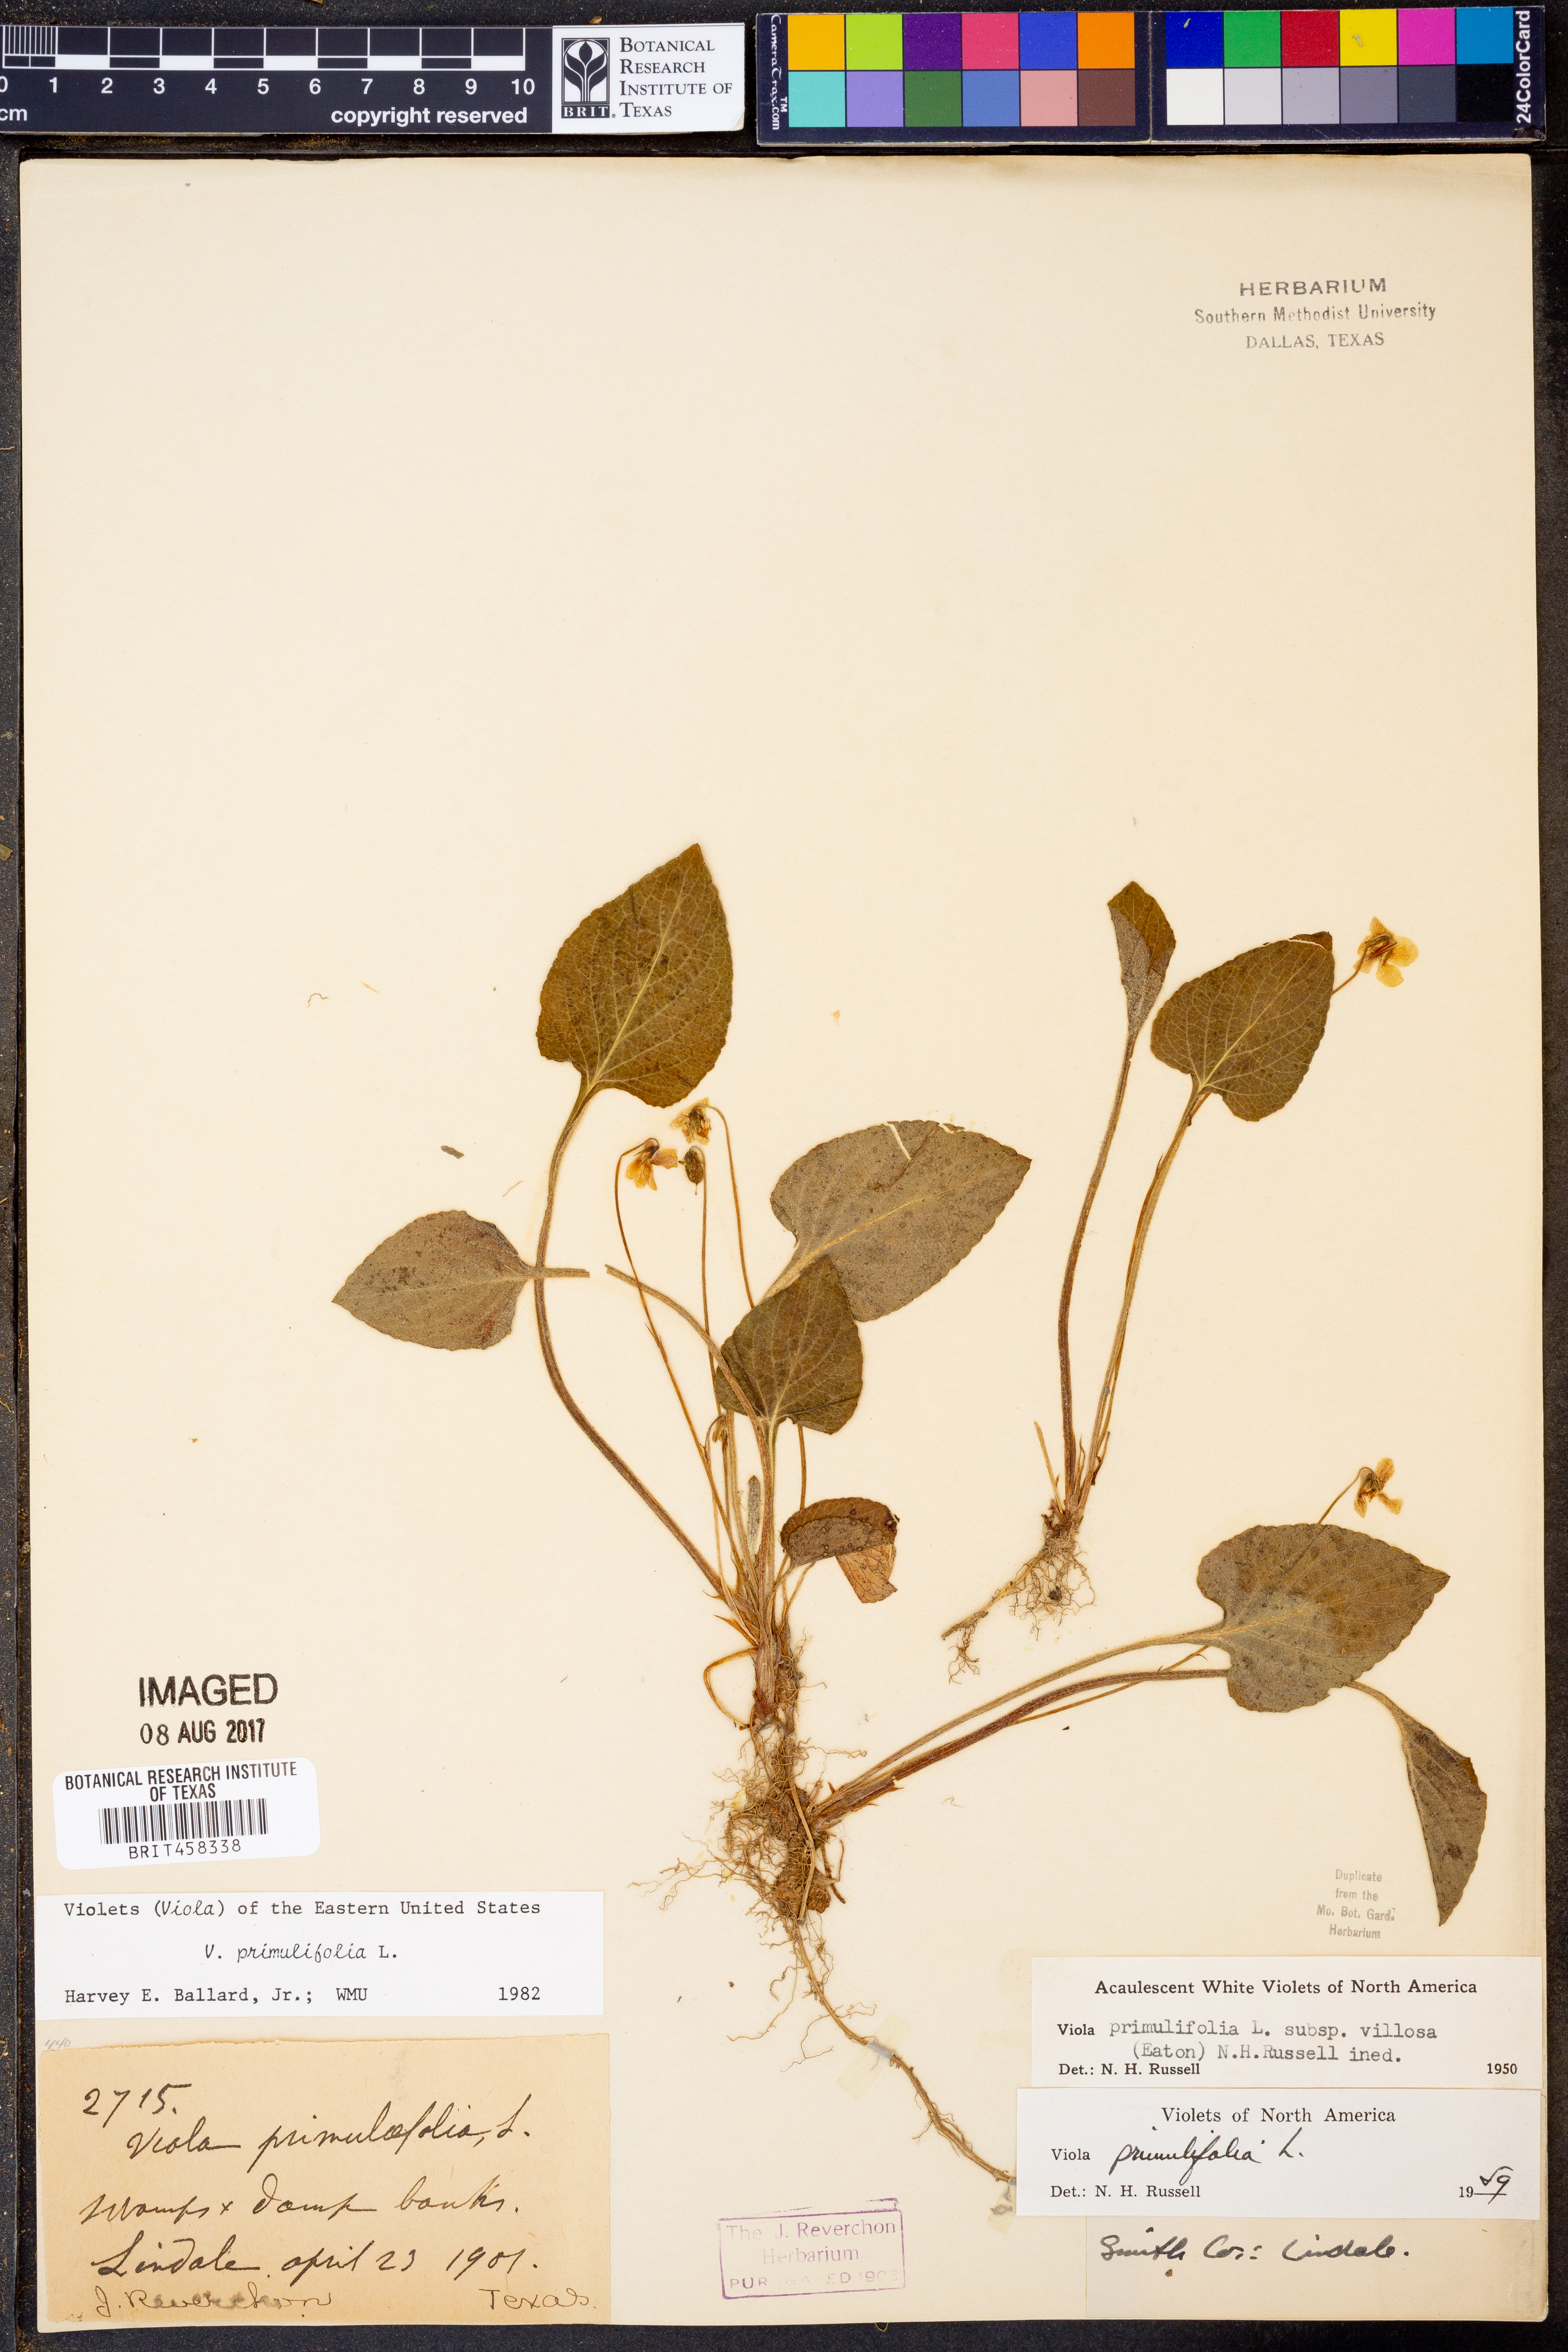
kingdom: Plantae
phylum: Tracheophyta
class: Magnoliopsida
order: Malpighiales
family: Violaceae
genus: Viola
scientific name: Viola primulifolia
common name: Primrose-leaf violet
